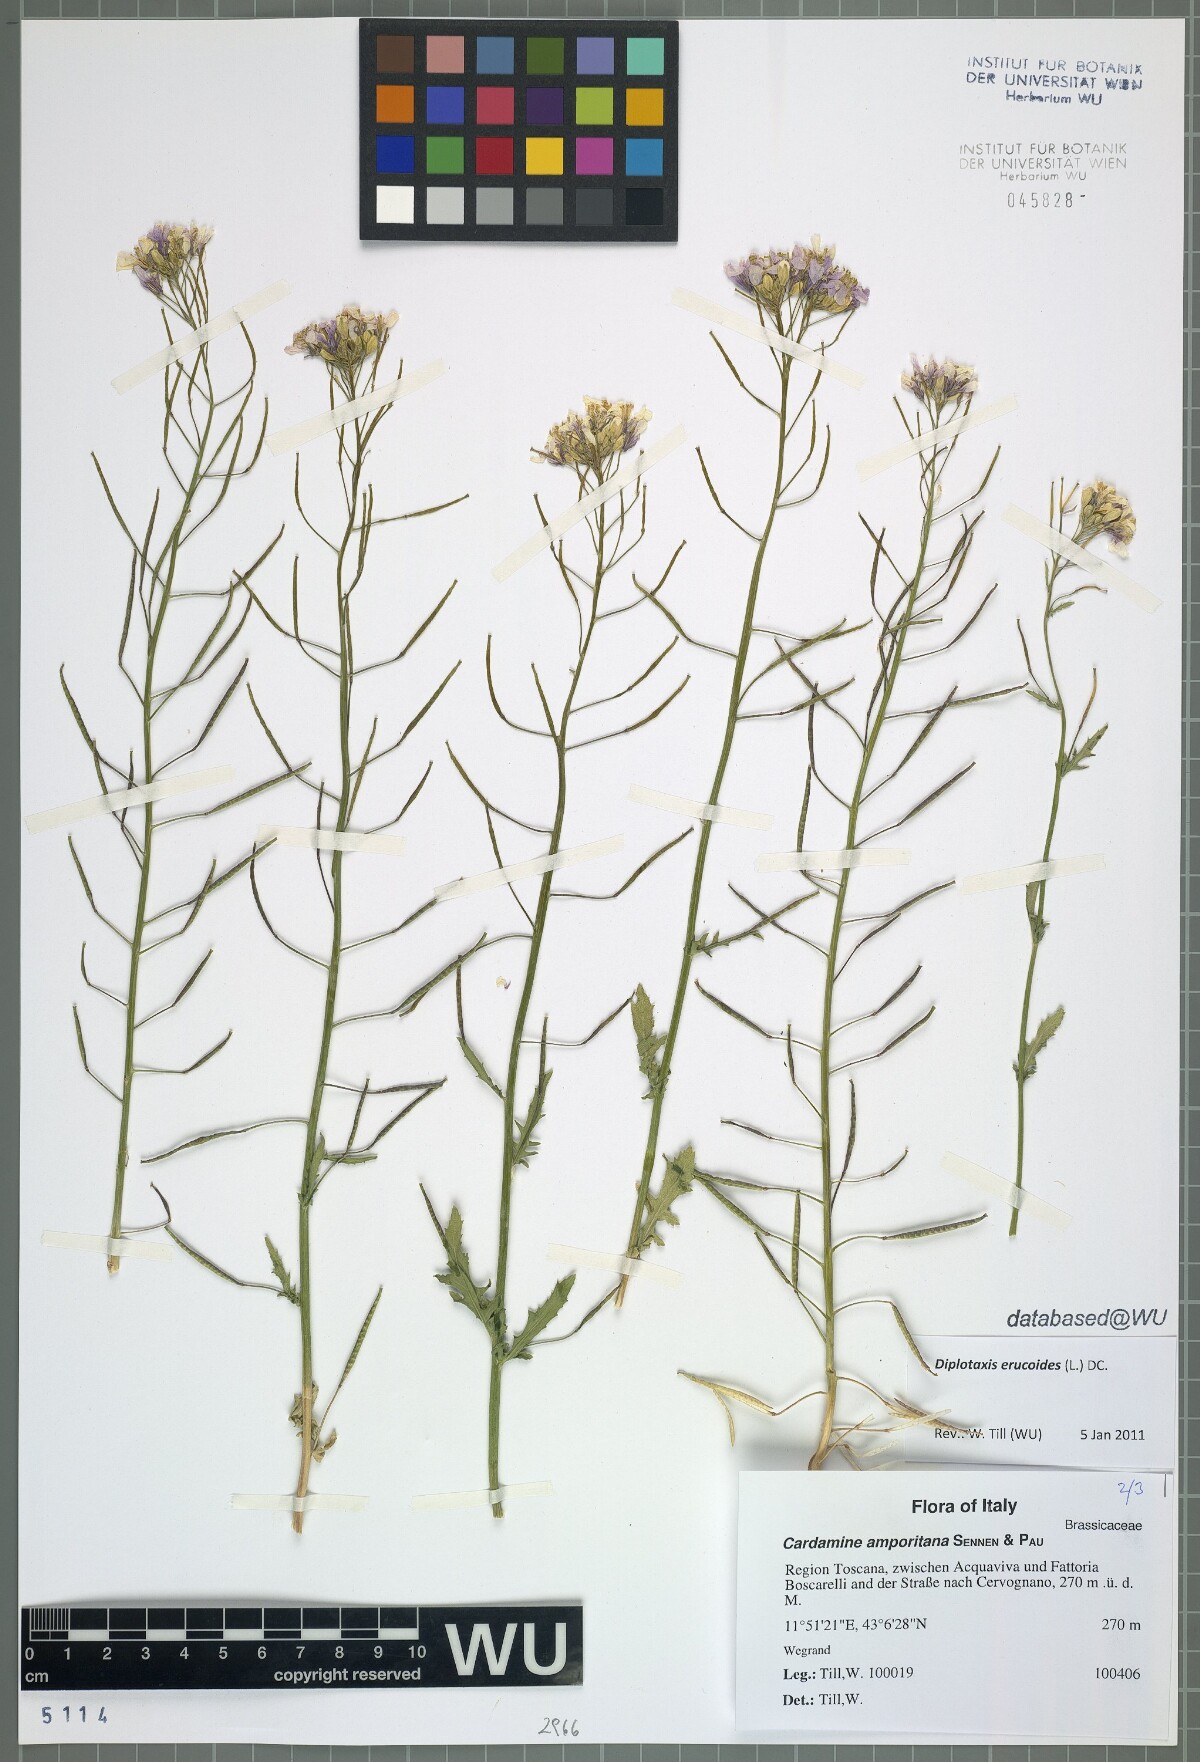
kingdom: Plantae
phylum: Tracheophyta
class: Magnoliopsida
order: Brassicales
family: Brassicaceae
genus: Diplotaxis
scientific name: Diplotaxis erucoides
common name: White rocket
